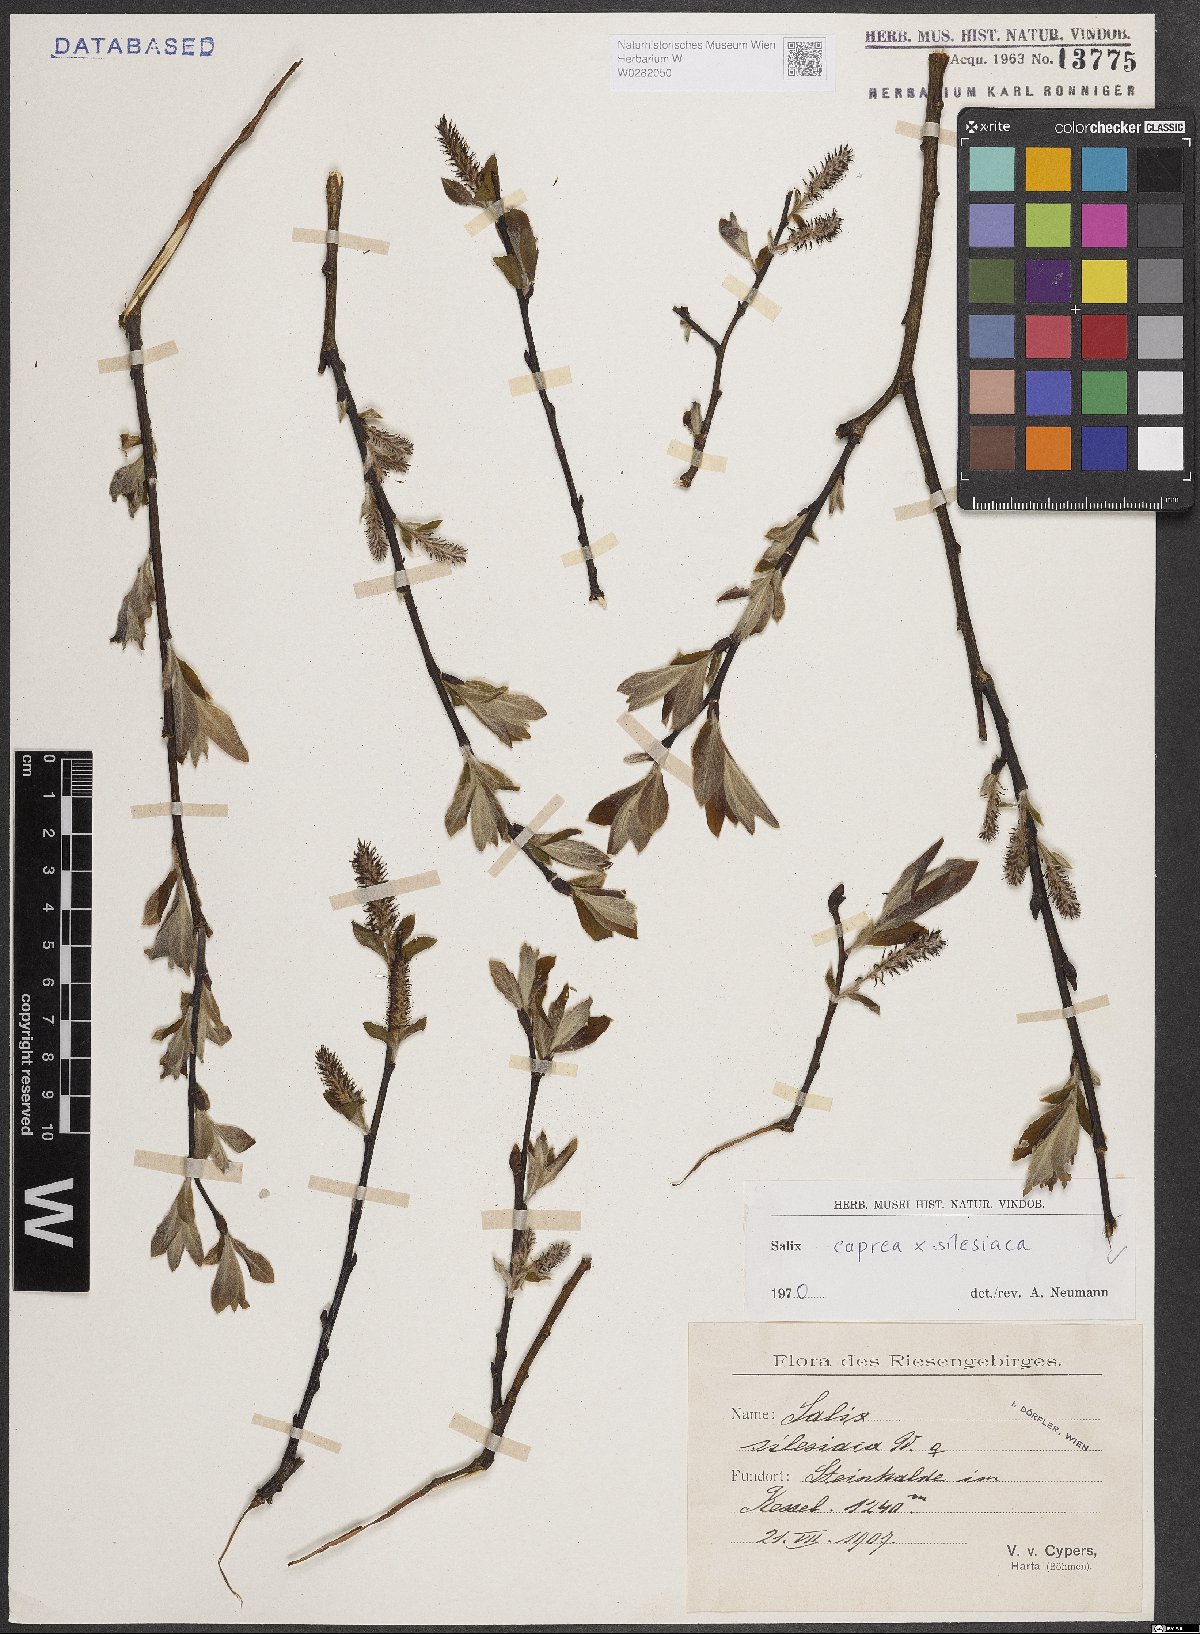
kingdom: Plantae
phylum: Tracheophyta
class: Magnoliopsida
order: Malpighiales
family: Salicaceae
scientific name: Salicaceae
